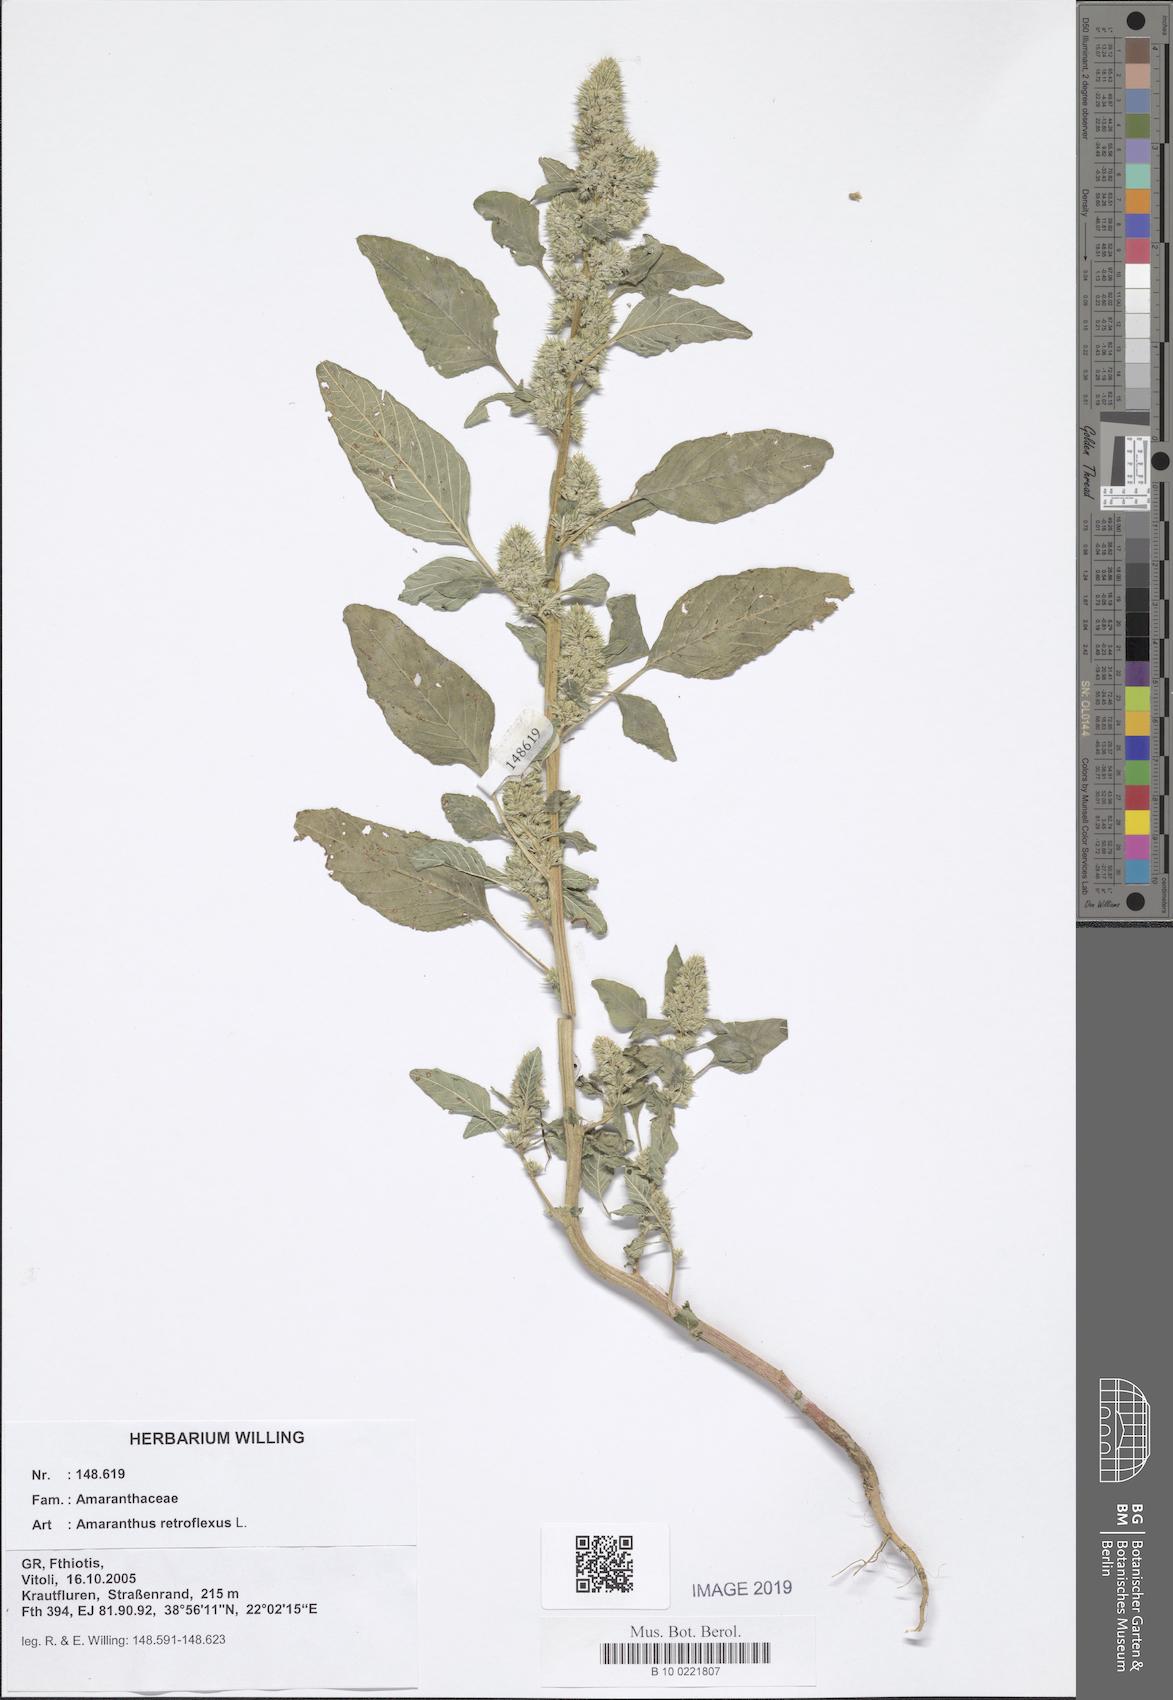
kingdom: Plantae
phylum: Tracheophyta
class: Magnoliopsida
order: Caryophyllales
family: Amaranthaceae
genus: Amaranthus
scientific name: Amaranthus retroflexus
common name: Redroot amaranth
